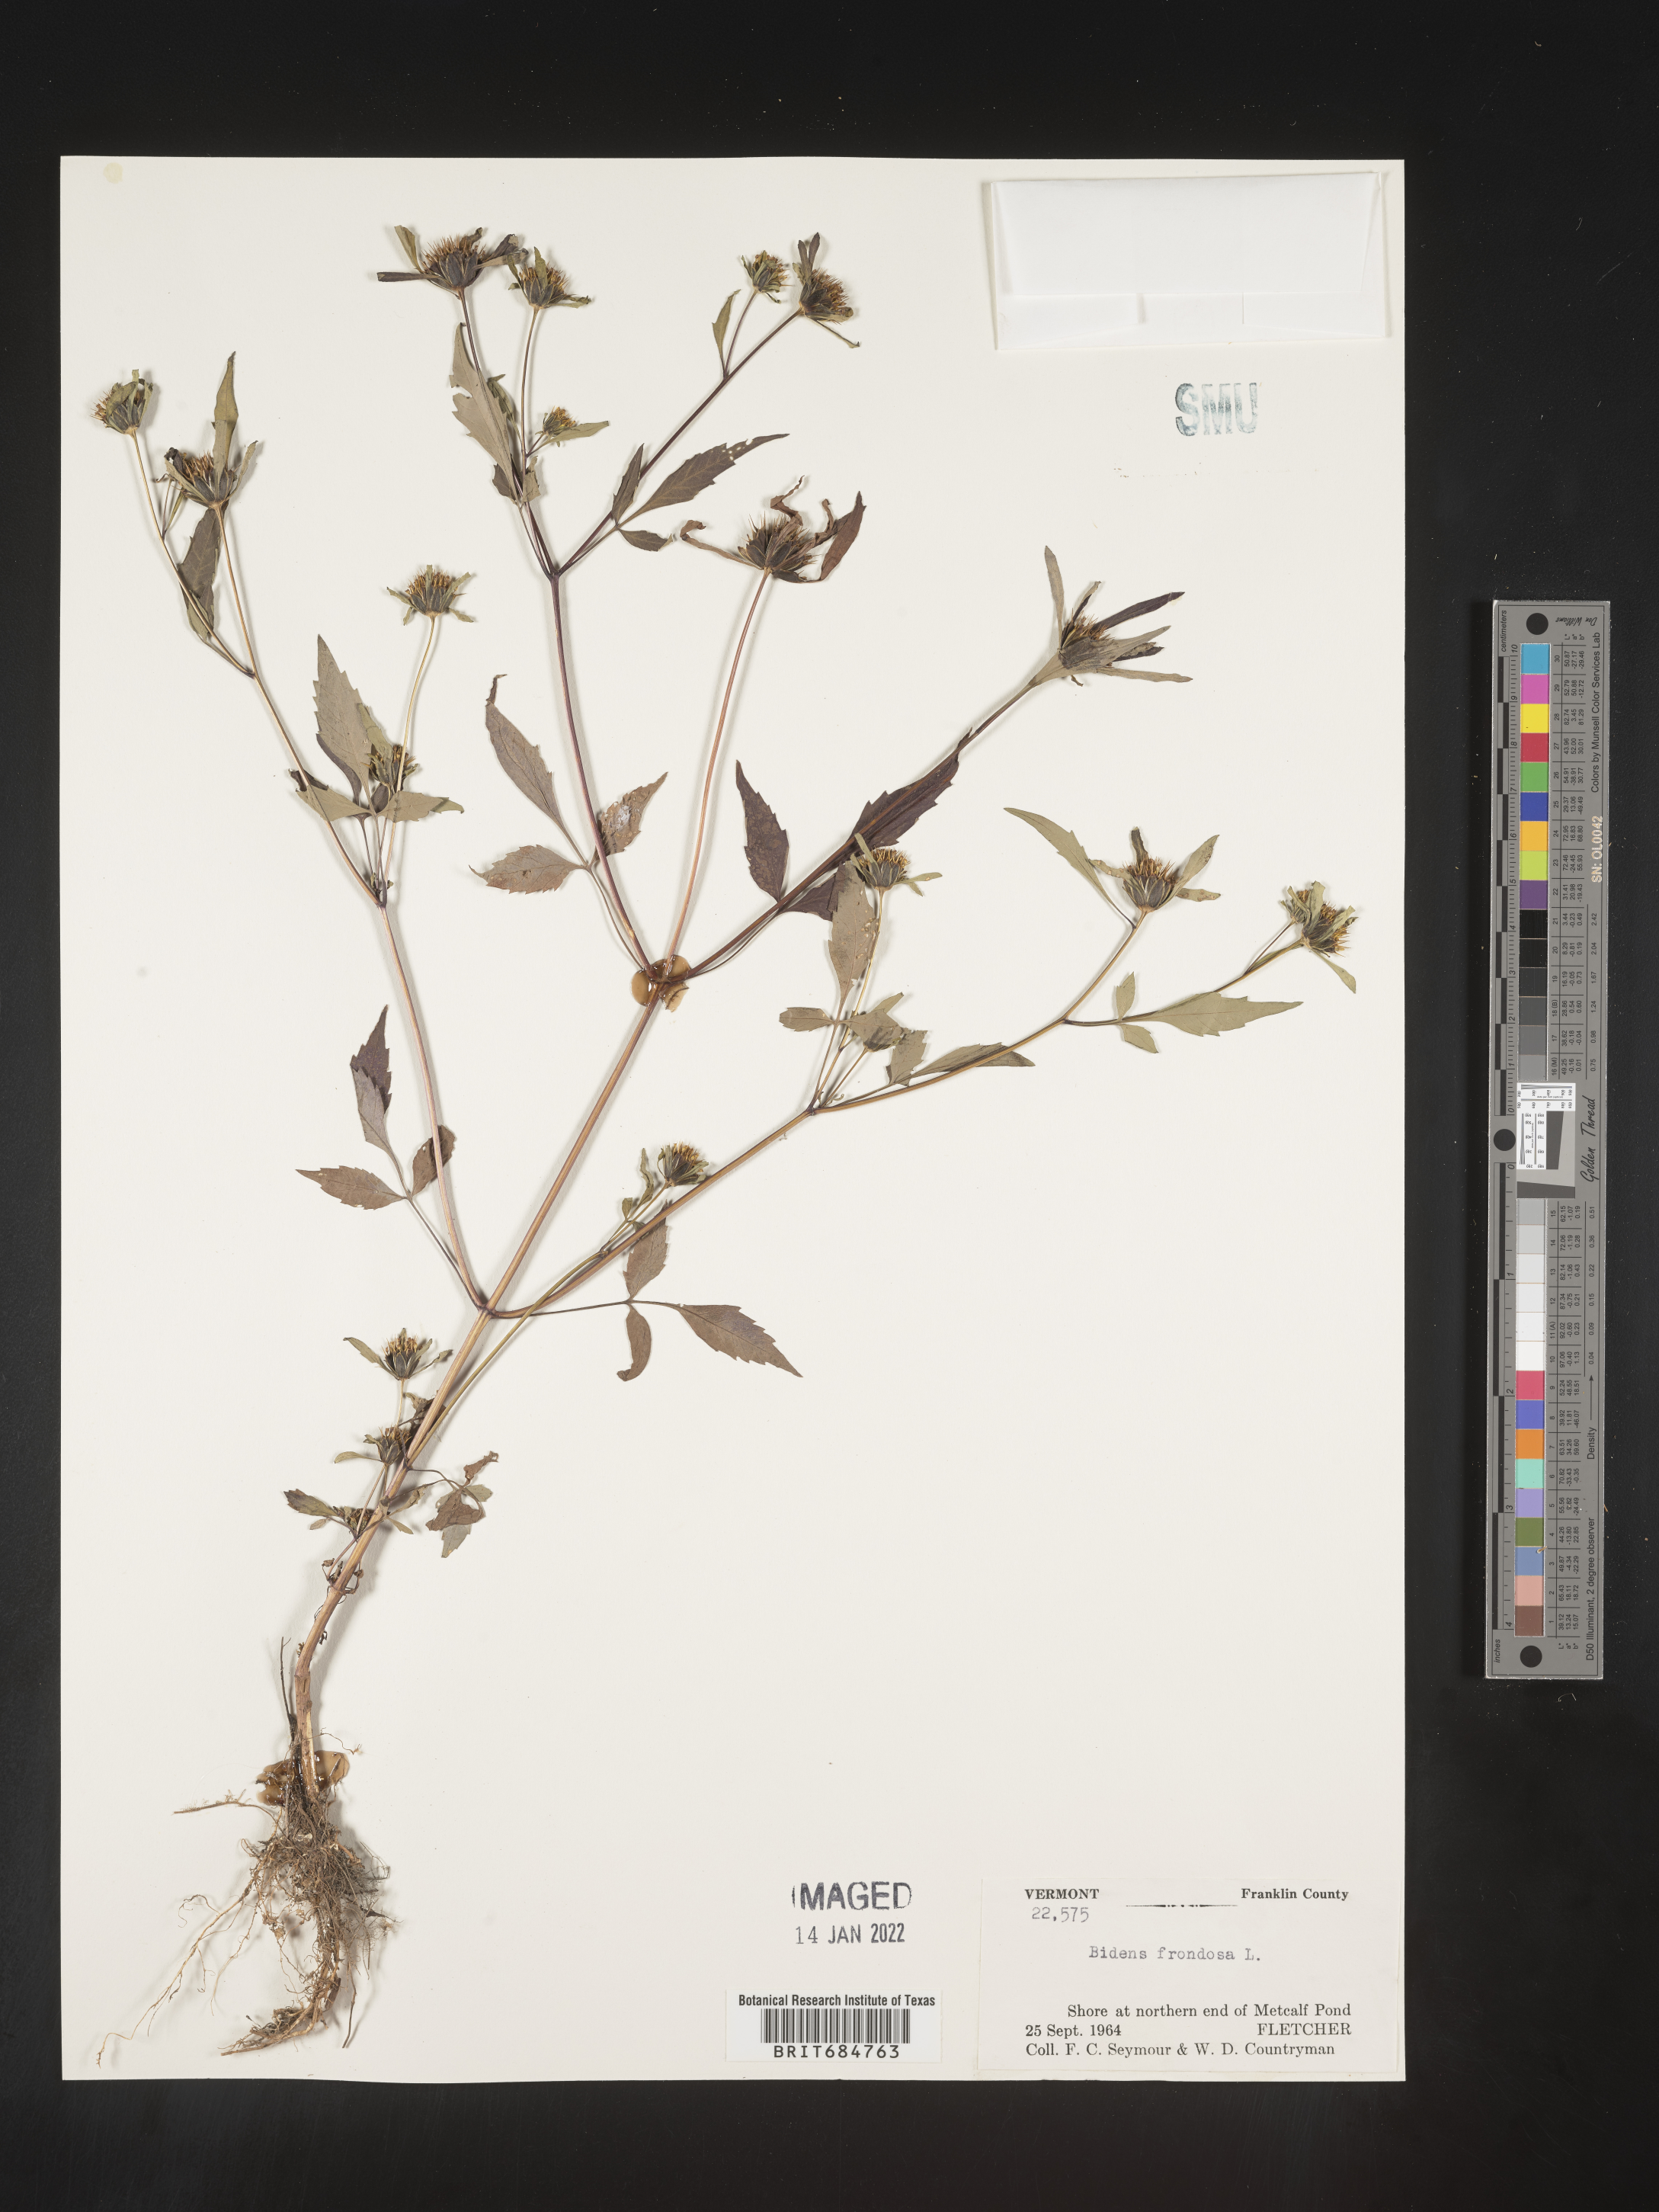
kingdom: Plantae
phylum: Tracheophyta
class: Magnoliopsida
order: Asterales
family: Asteraceae
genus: Bidens
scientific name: Bidens frondosa
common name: Beggarticks
